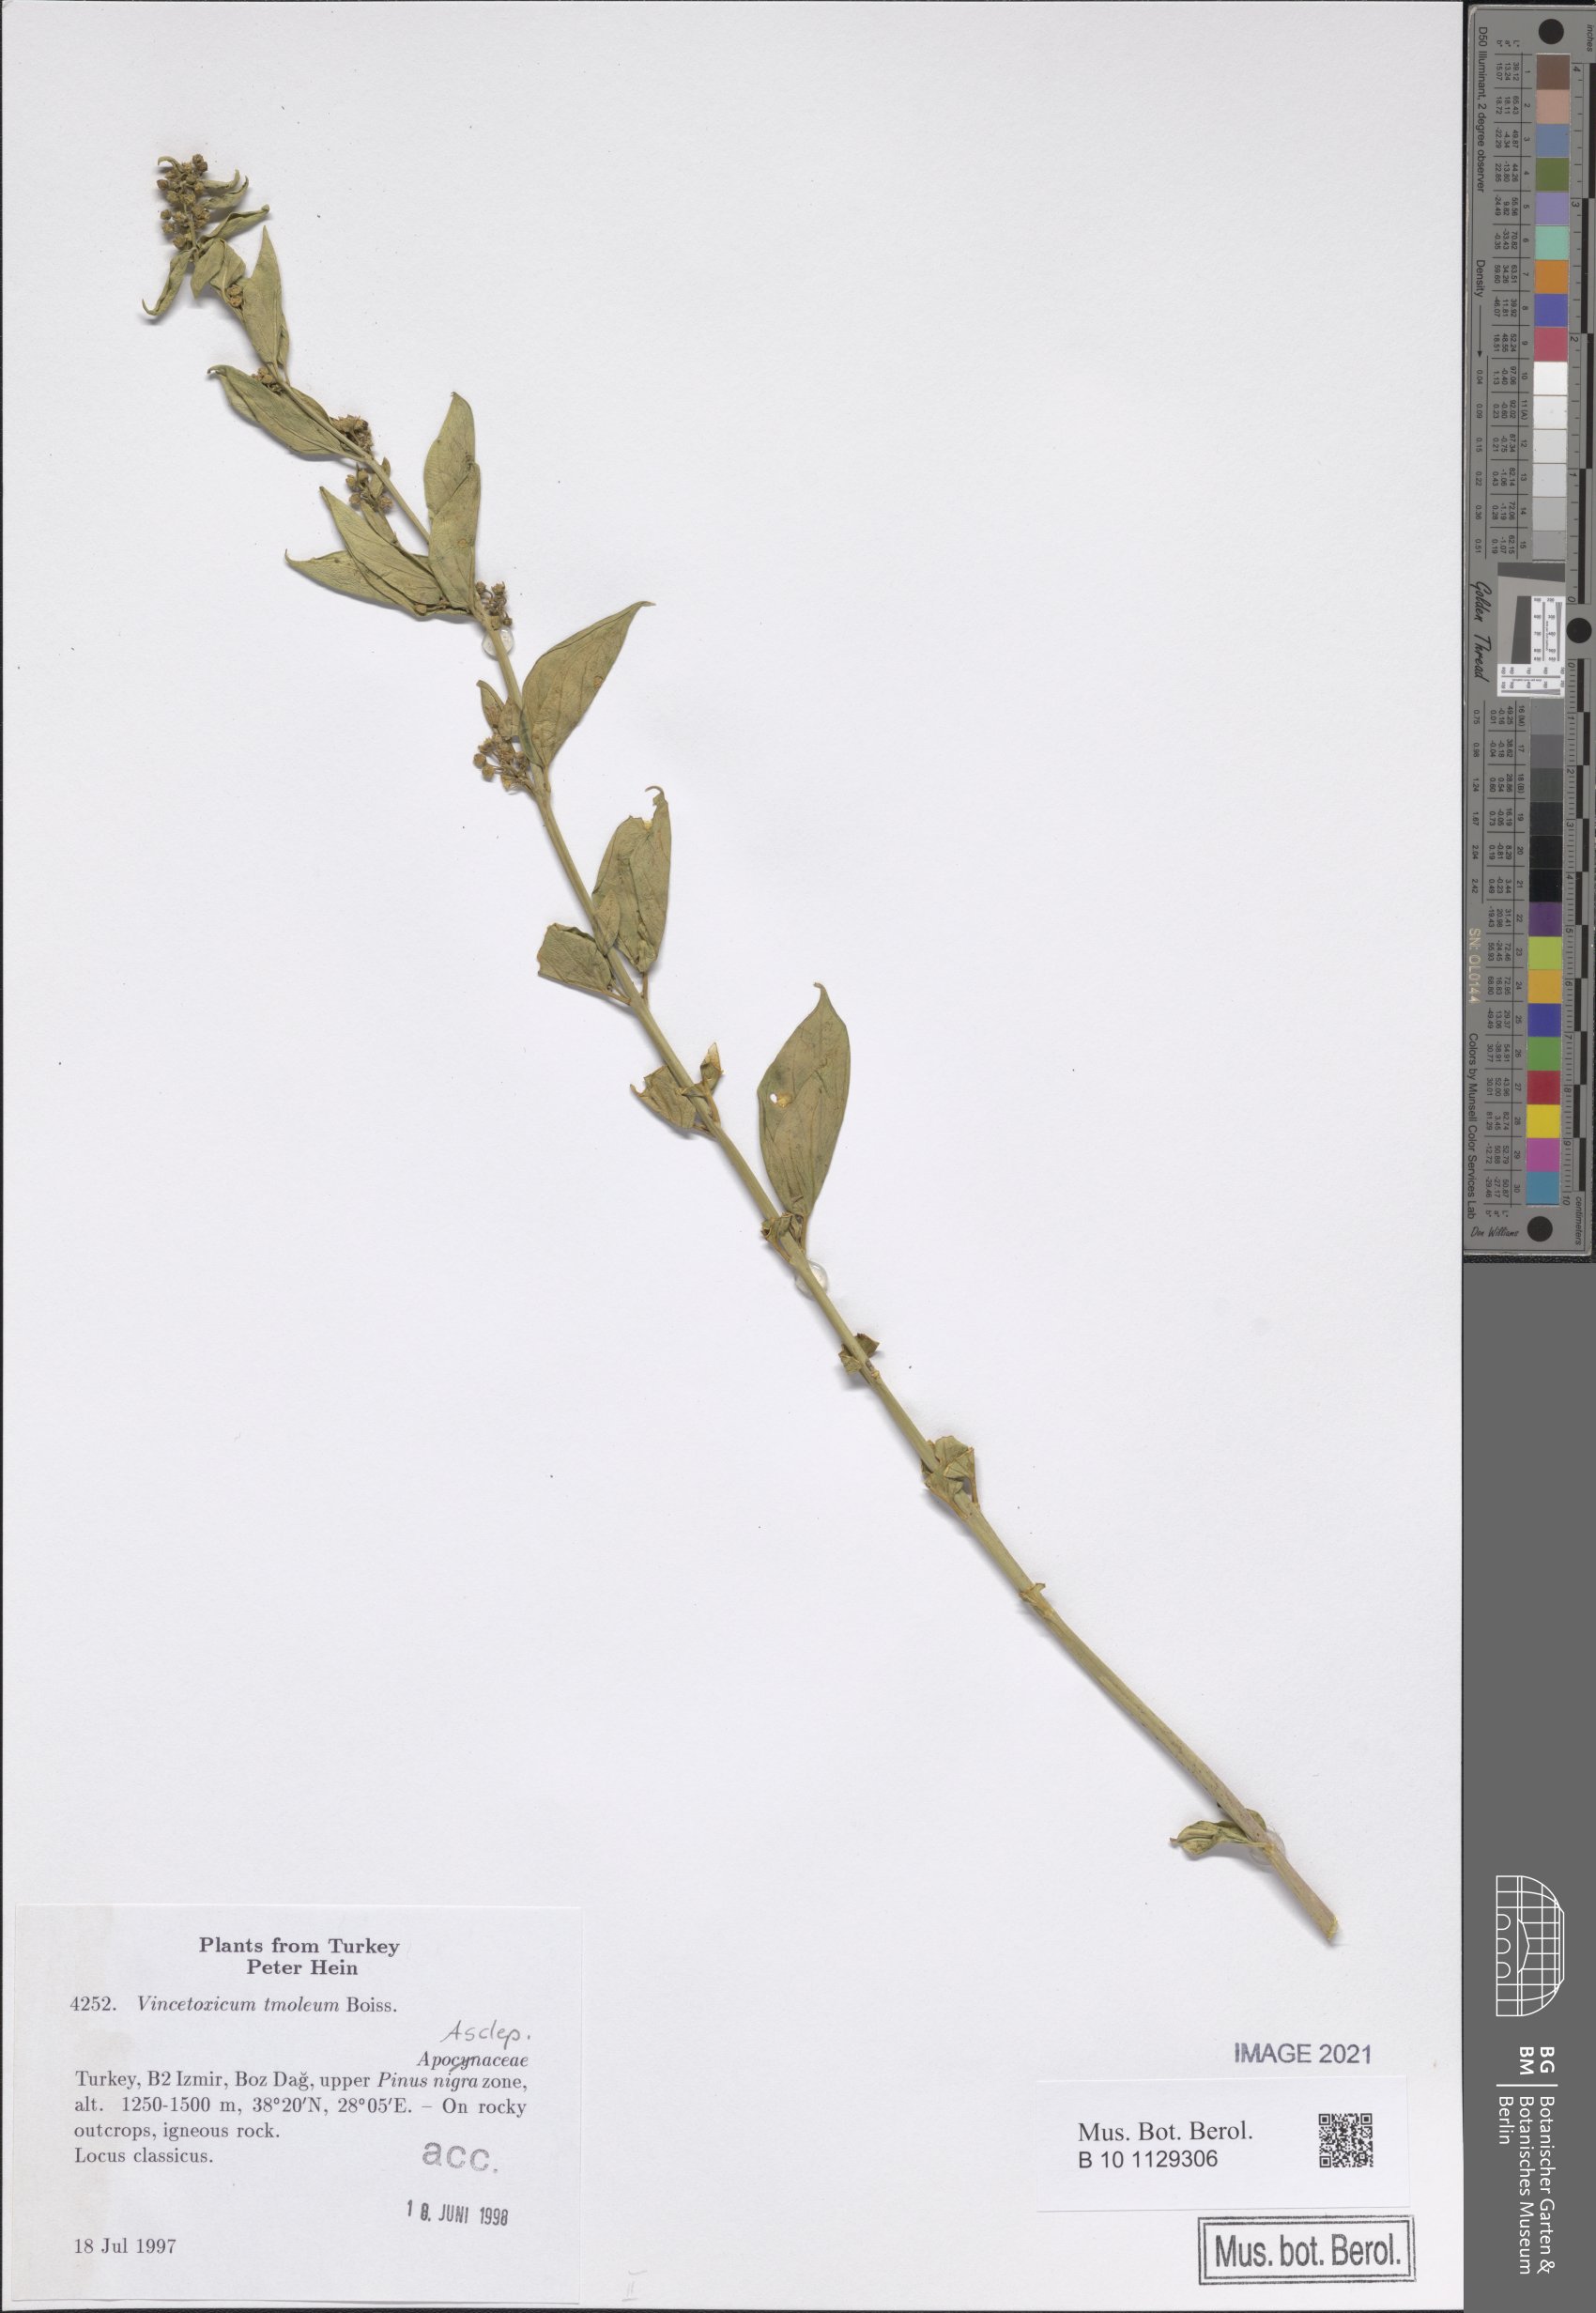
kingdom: Plantae
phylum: Tracheophyta
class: Magnoliopsida
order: Gentianales
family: Apocynaceae
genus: Vincetoxicum
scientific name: Vincetoxicum tmoleum
